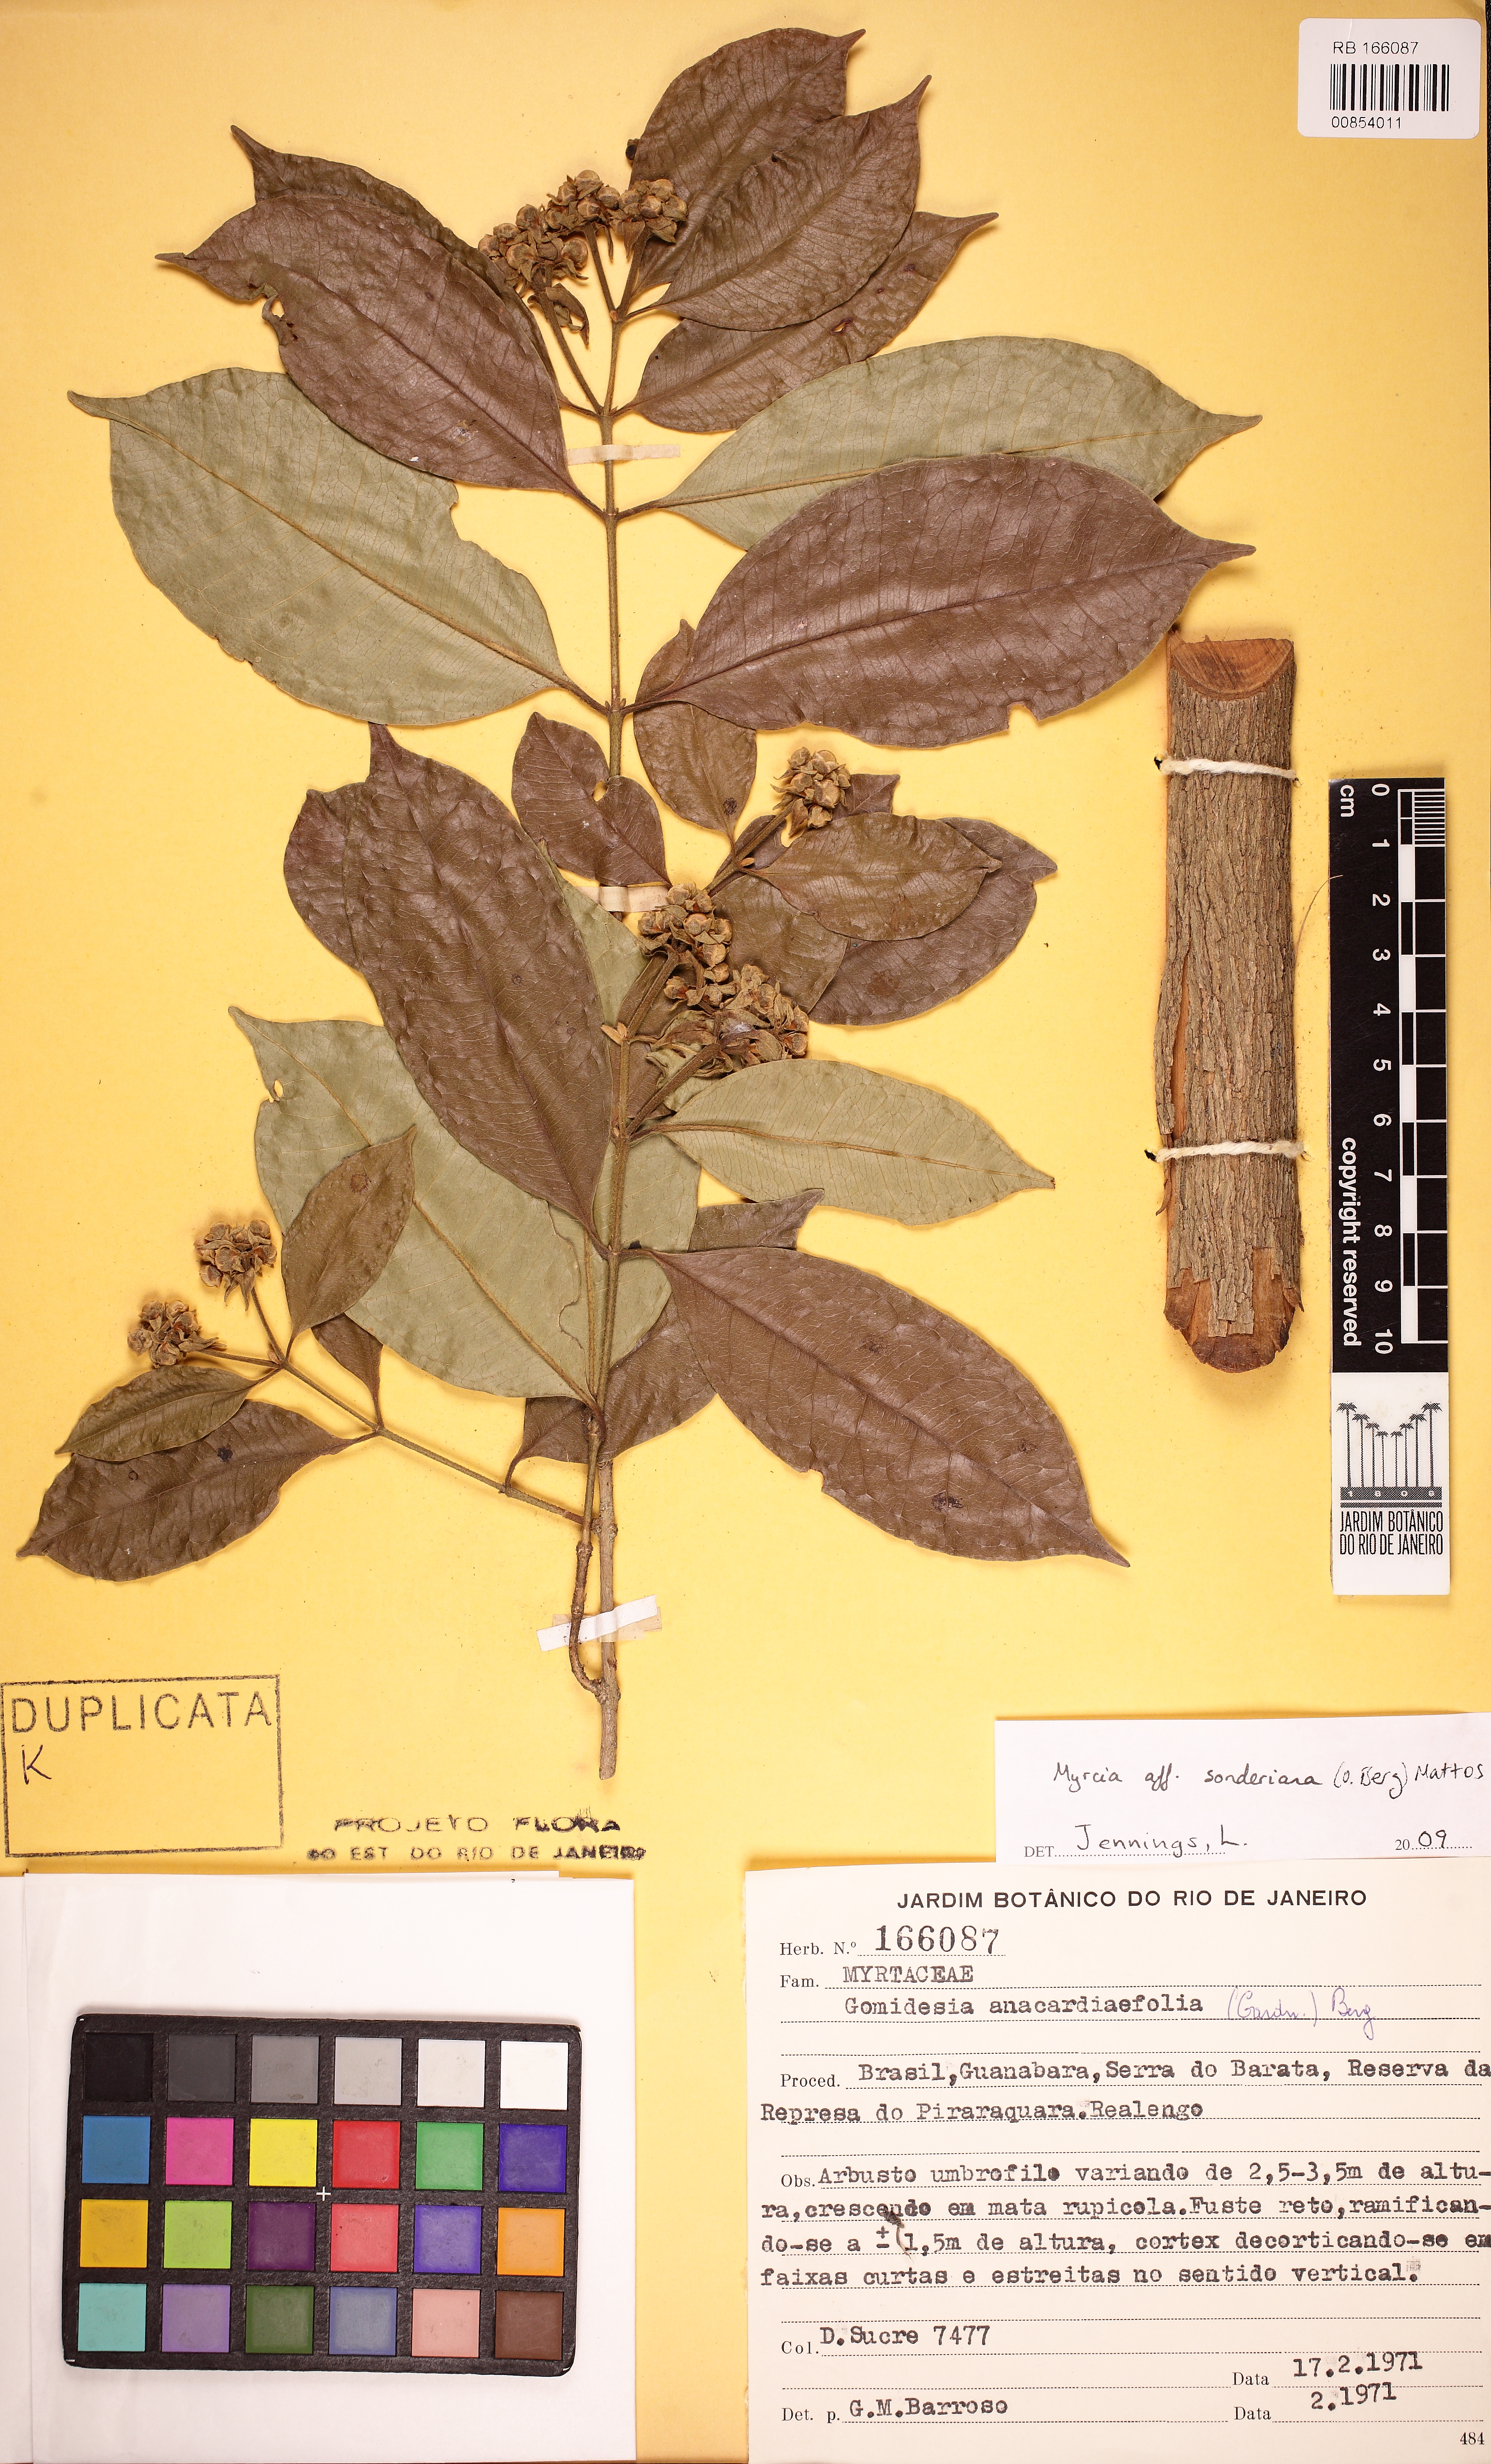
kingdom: Plantae
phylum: Tracheophyta
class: Magnoliopsida
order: Myrtales
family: Myrtaceae
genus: Myrcia
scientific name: Myrcia venulosa
